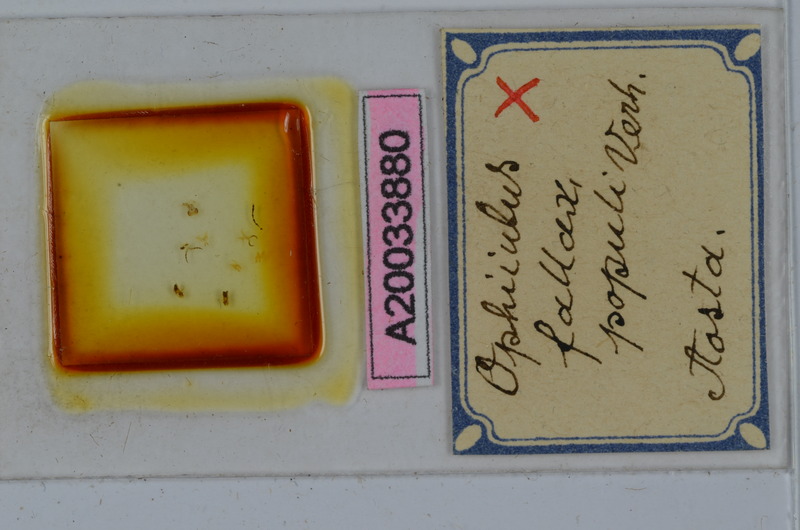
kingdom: Animalia
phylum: Arthropoda
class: Diplopoda
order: Julida
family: Julidae
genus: Ophiiulus
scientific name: Ophiiulus fallax
